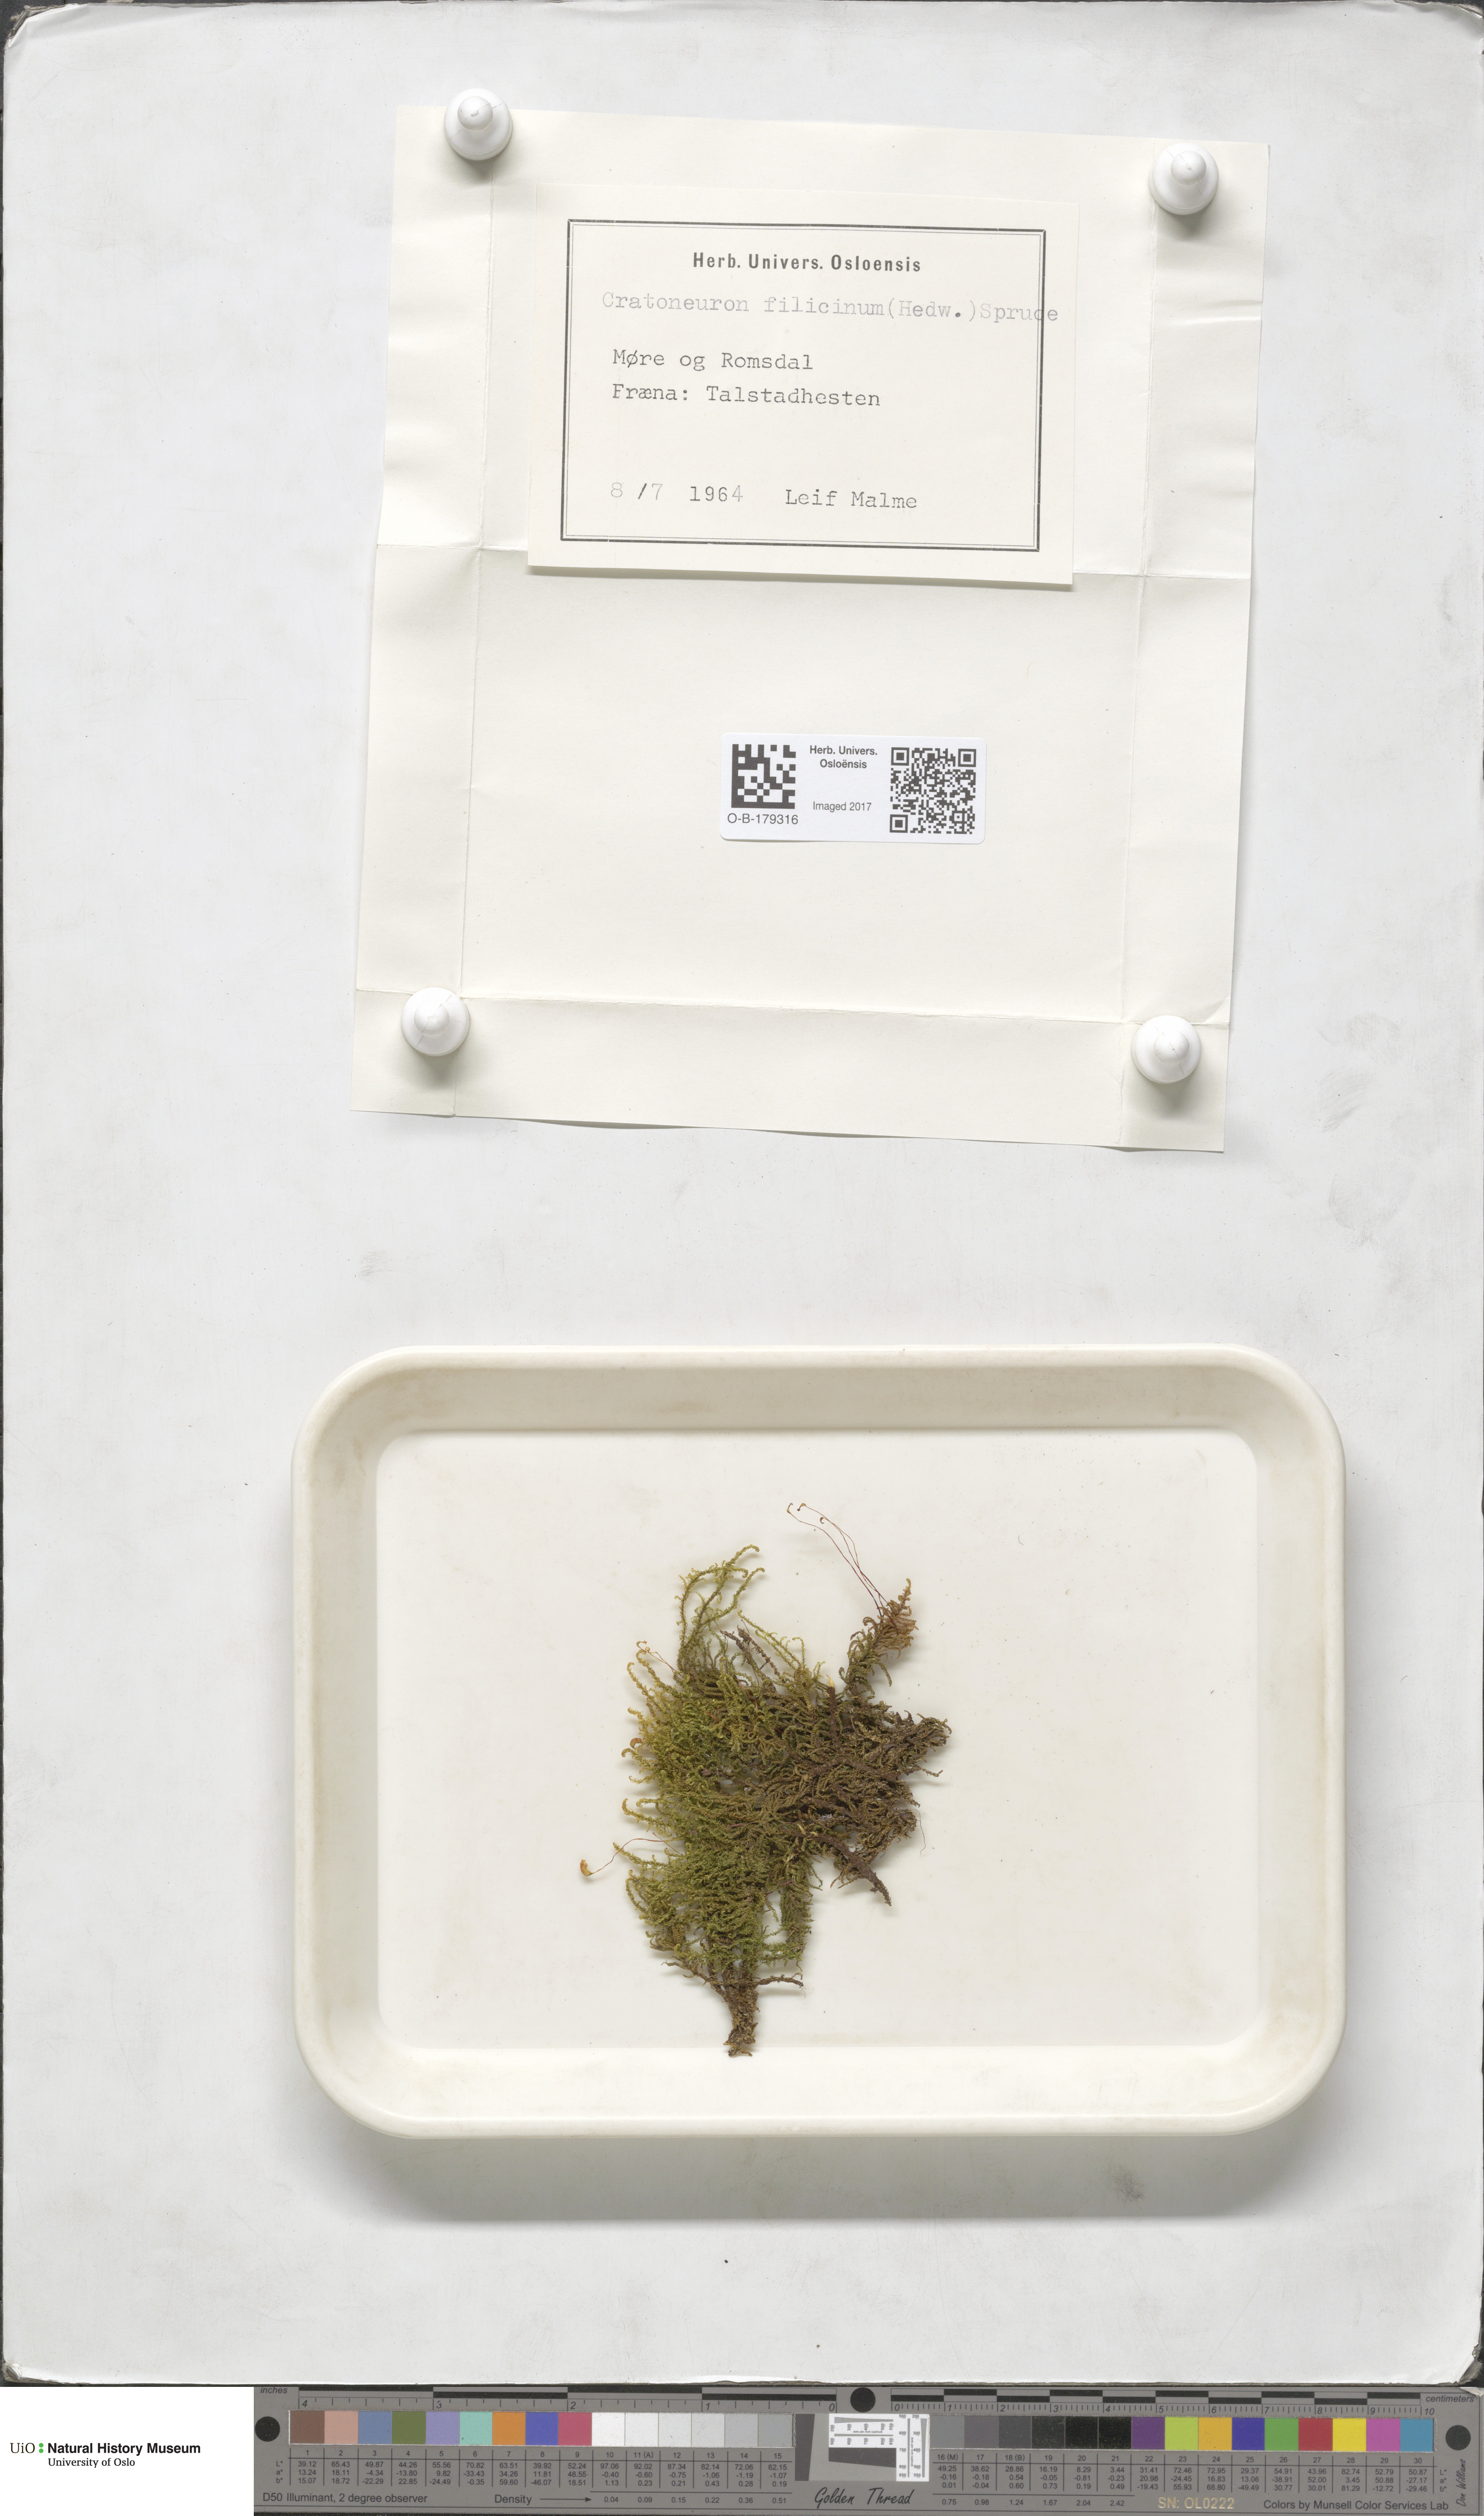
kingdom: Plantae
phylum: Bryophyta
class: Bryopsida
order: Hypnales
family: Amblystegiaceae
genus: Cratoneuron
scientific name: Cratoneuron filicinum
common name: Fern-leaved hook moss
